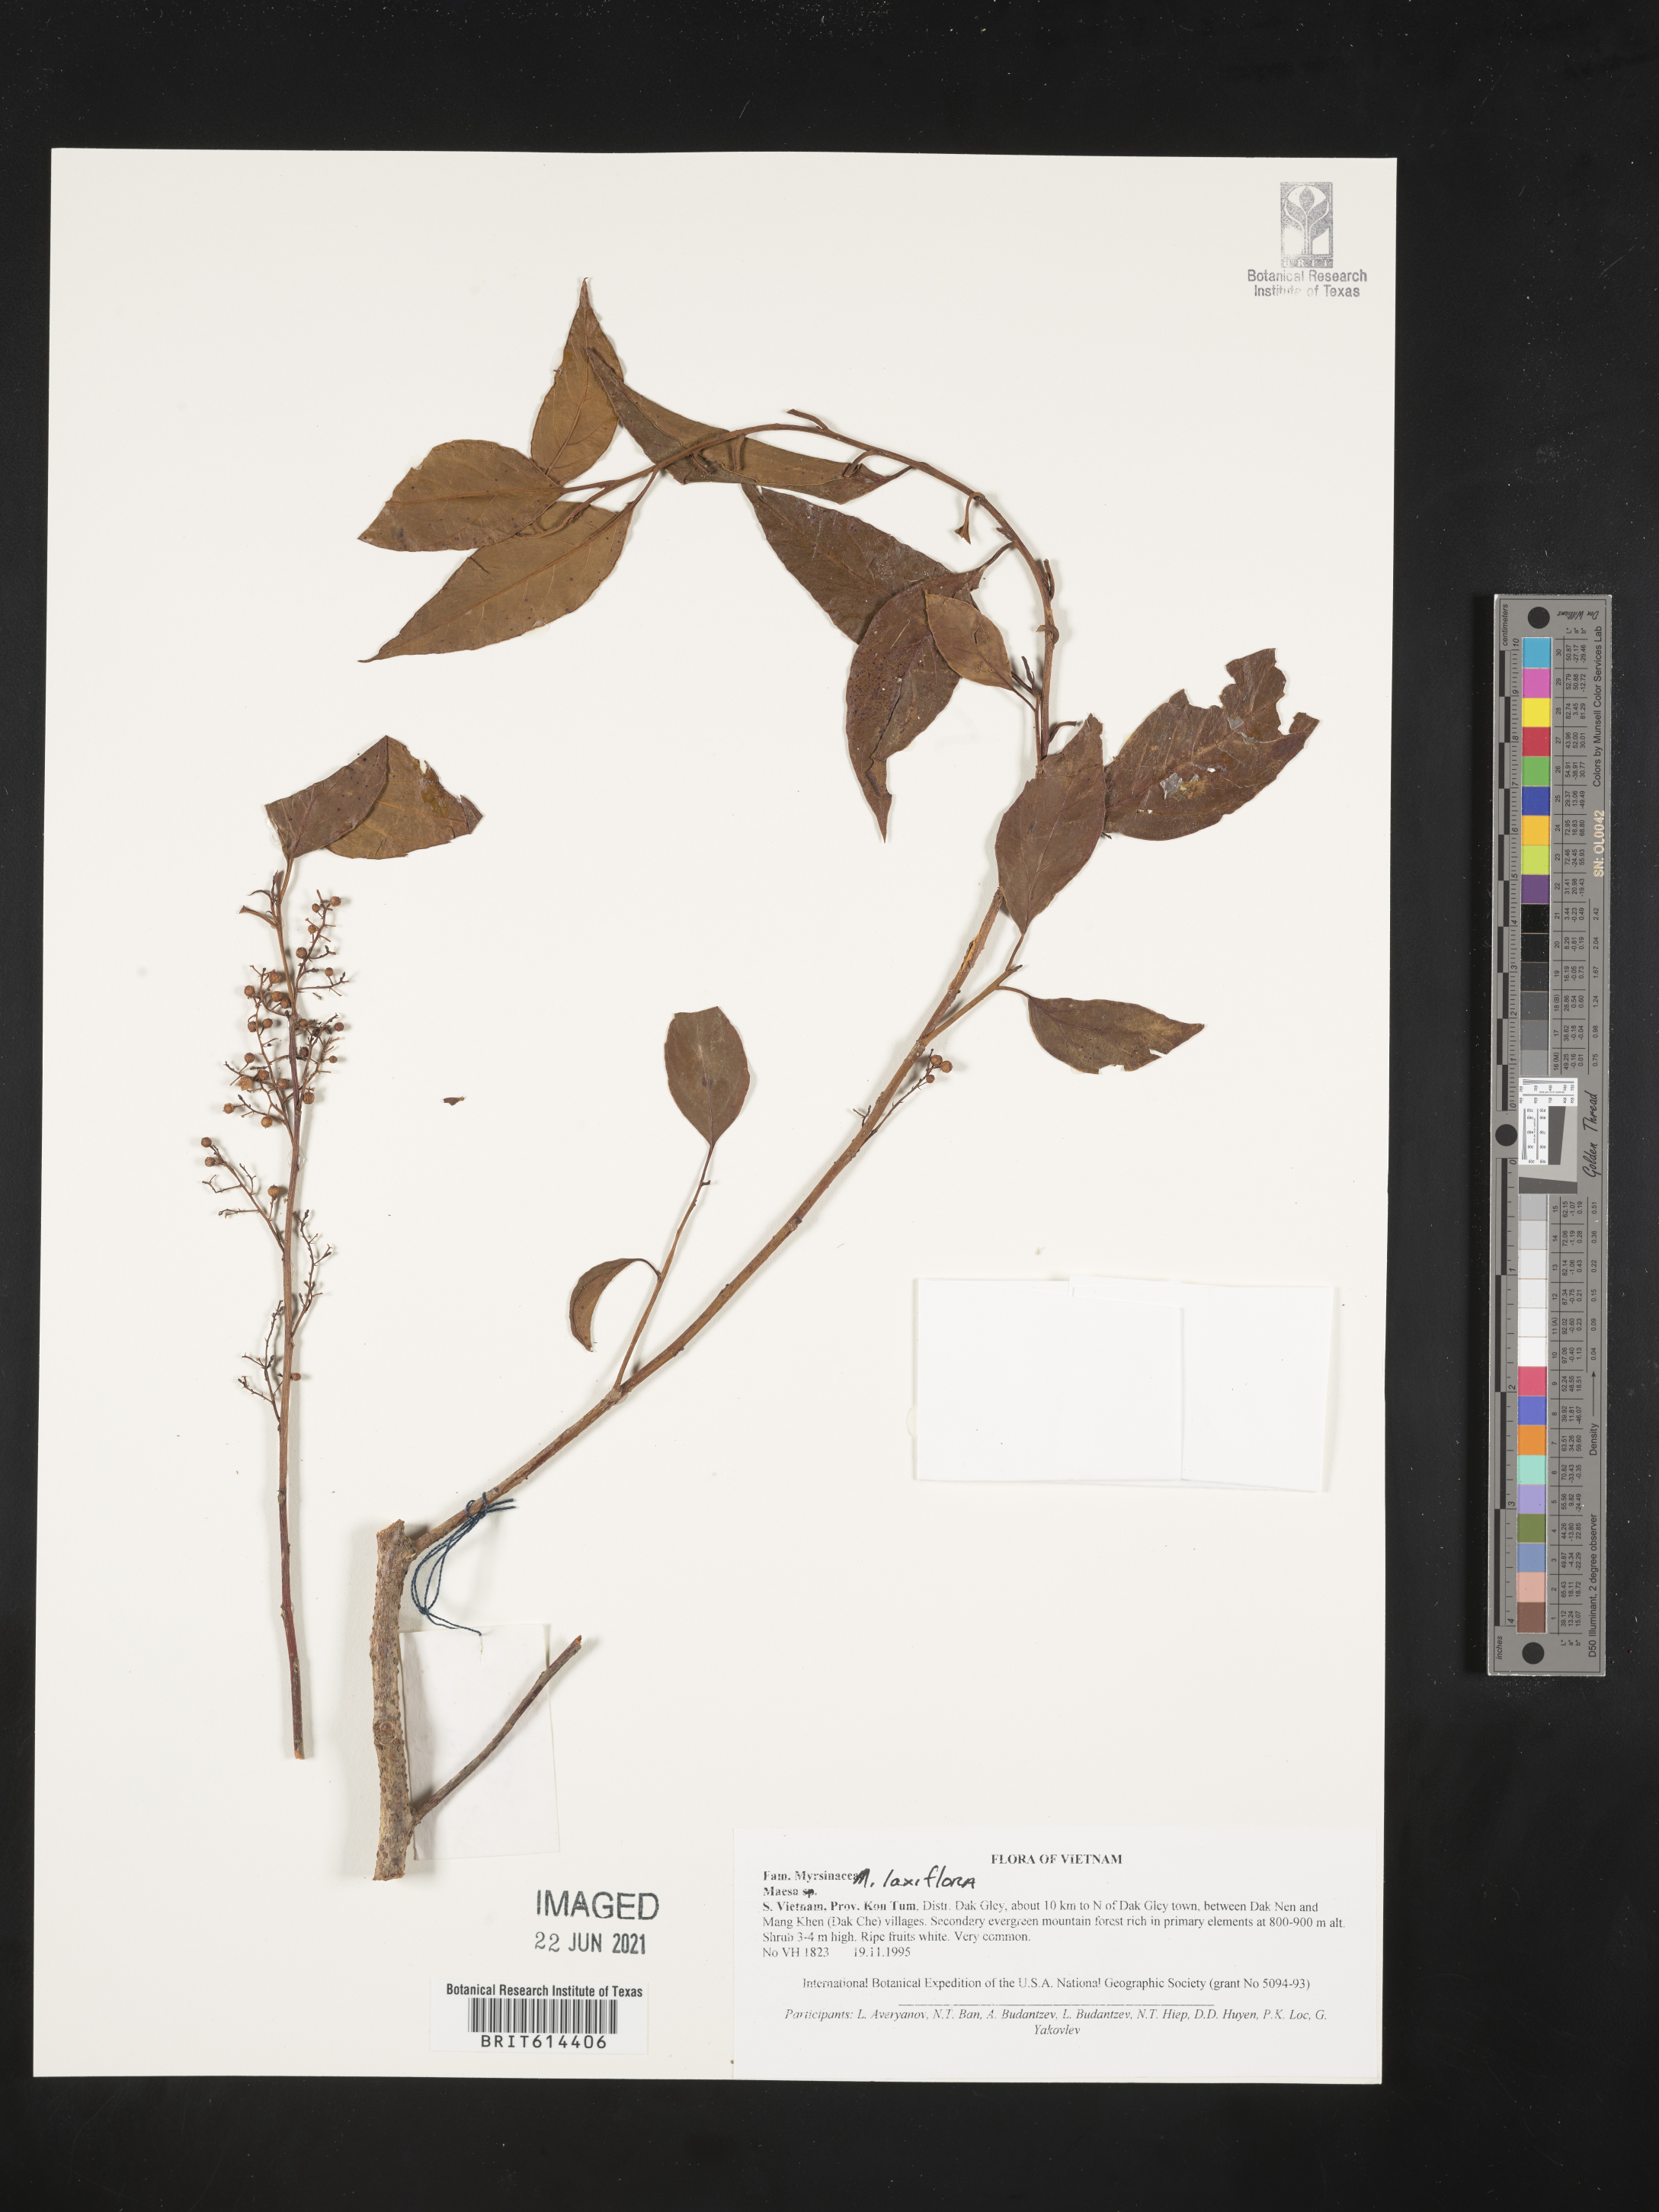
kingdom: Plantae
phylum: Tracheophyta
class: Magnoliopsida
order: Ericales
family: Primulaceae
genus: Maesa
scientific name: Maesa laxiflora
